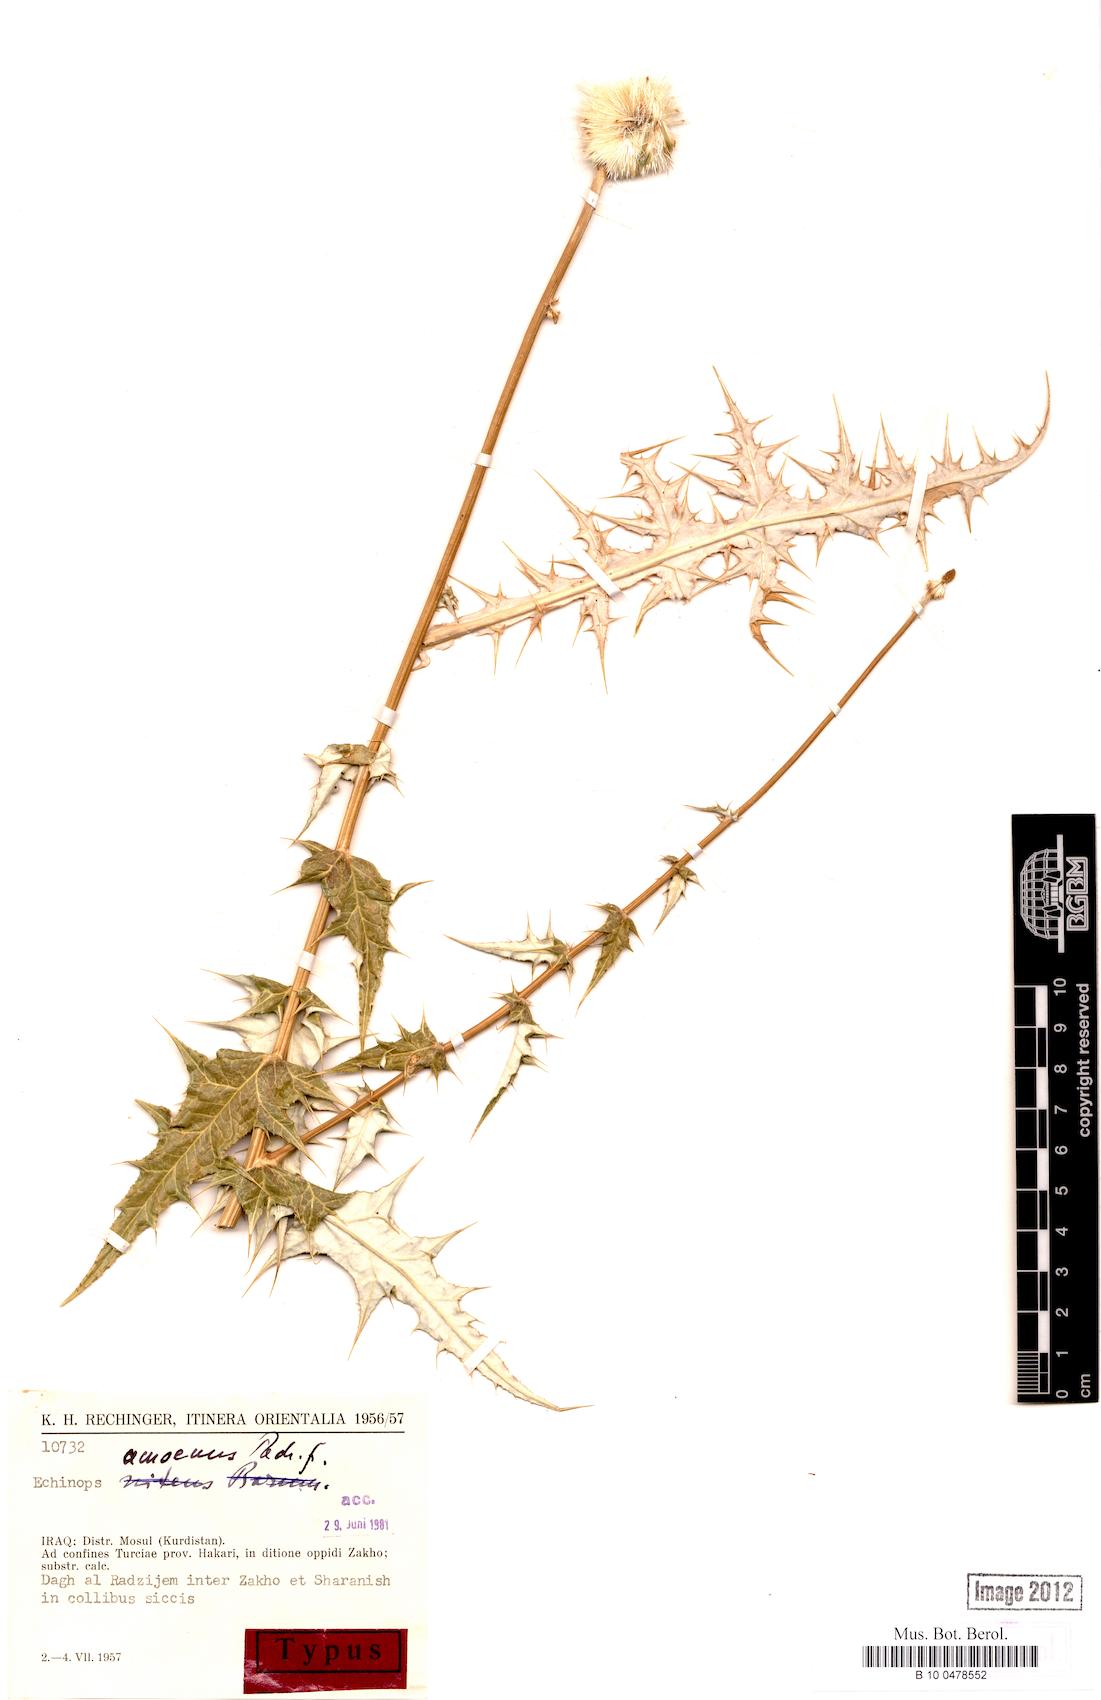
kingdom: Plantae
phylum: Tracheophyta
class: Magnoliopsida
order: Asterales
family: Asteraceae
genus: Echinops
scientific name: Echinops amoenus
